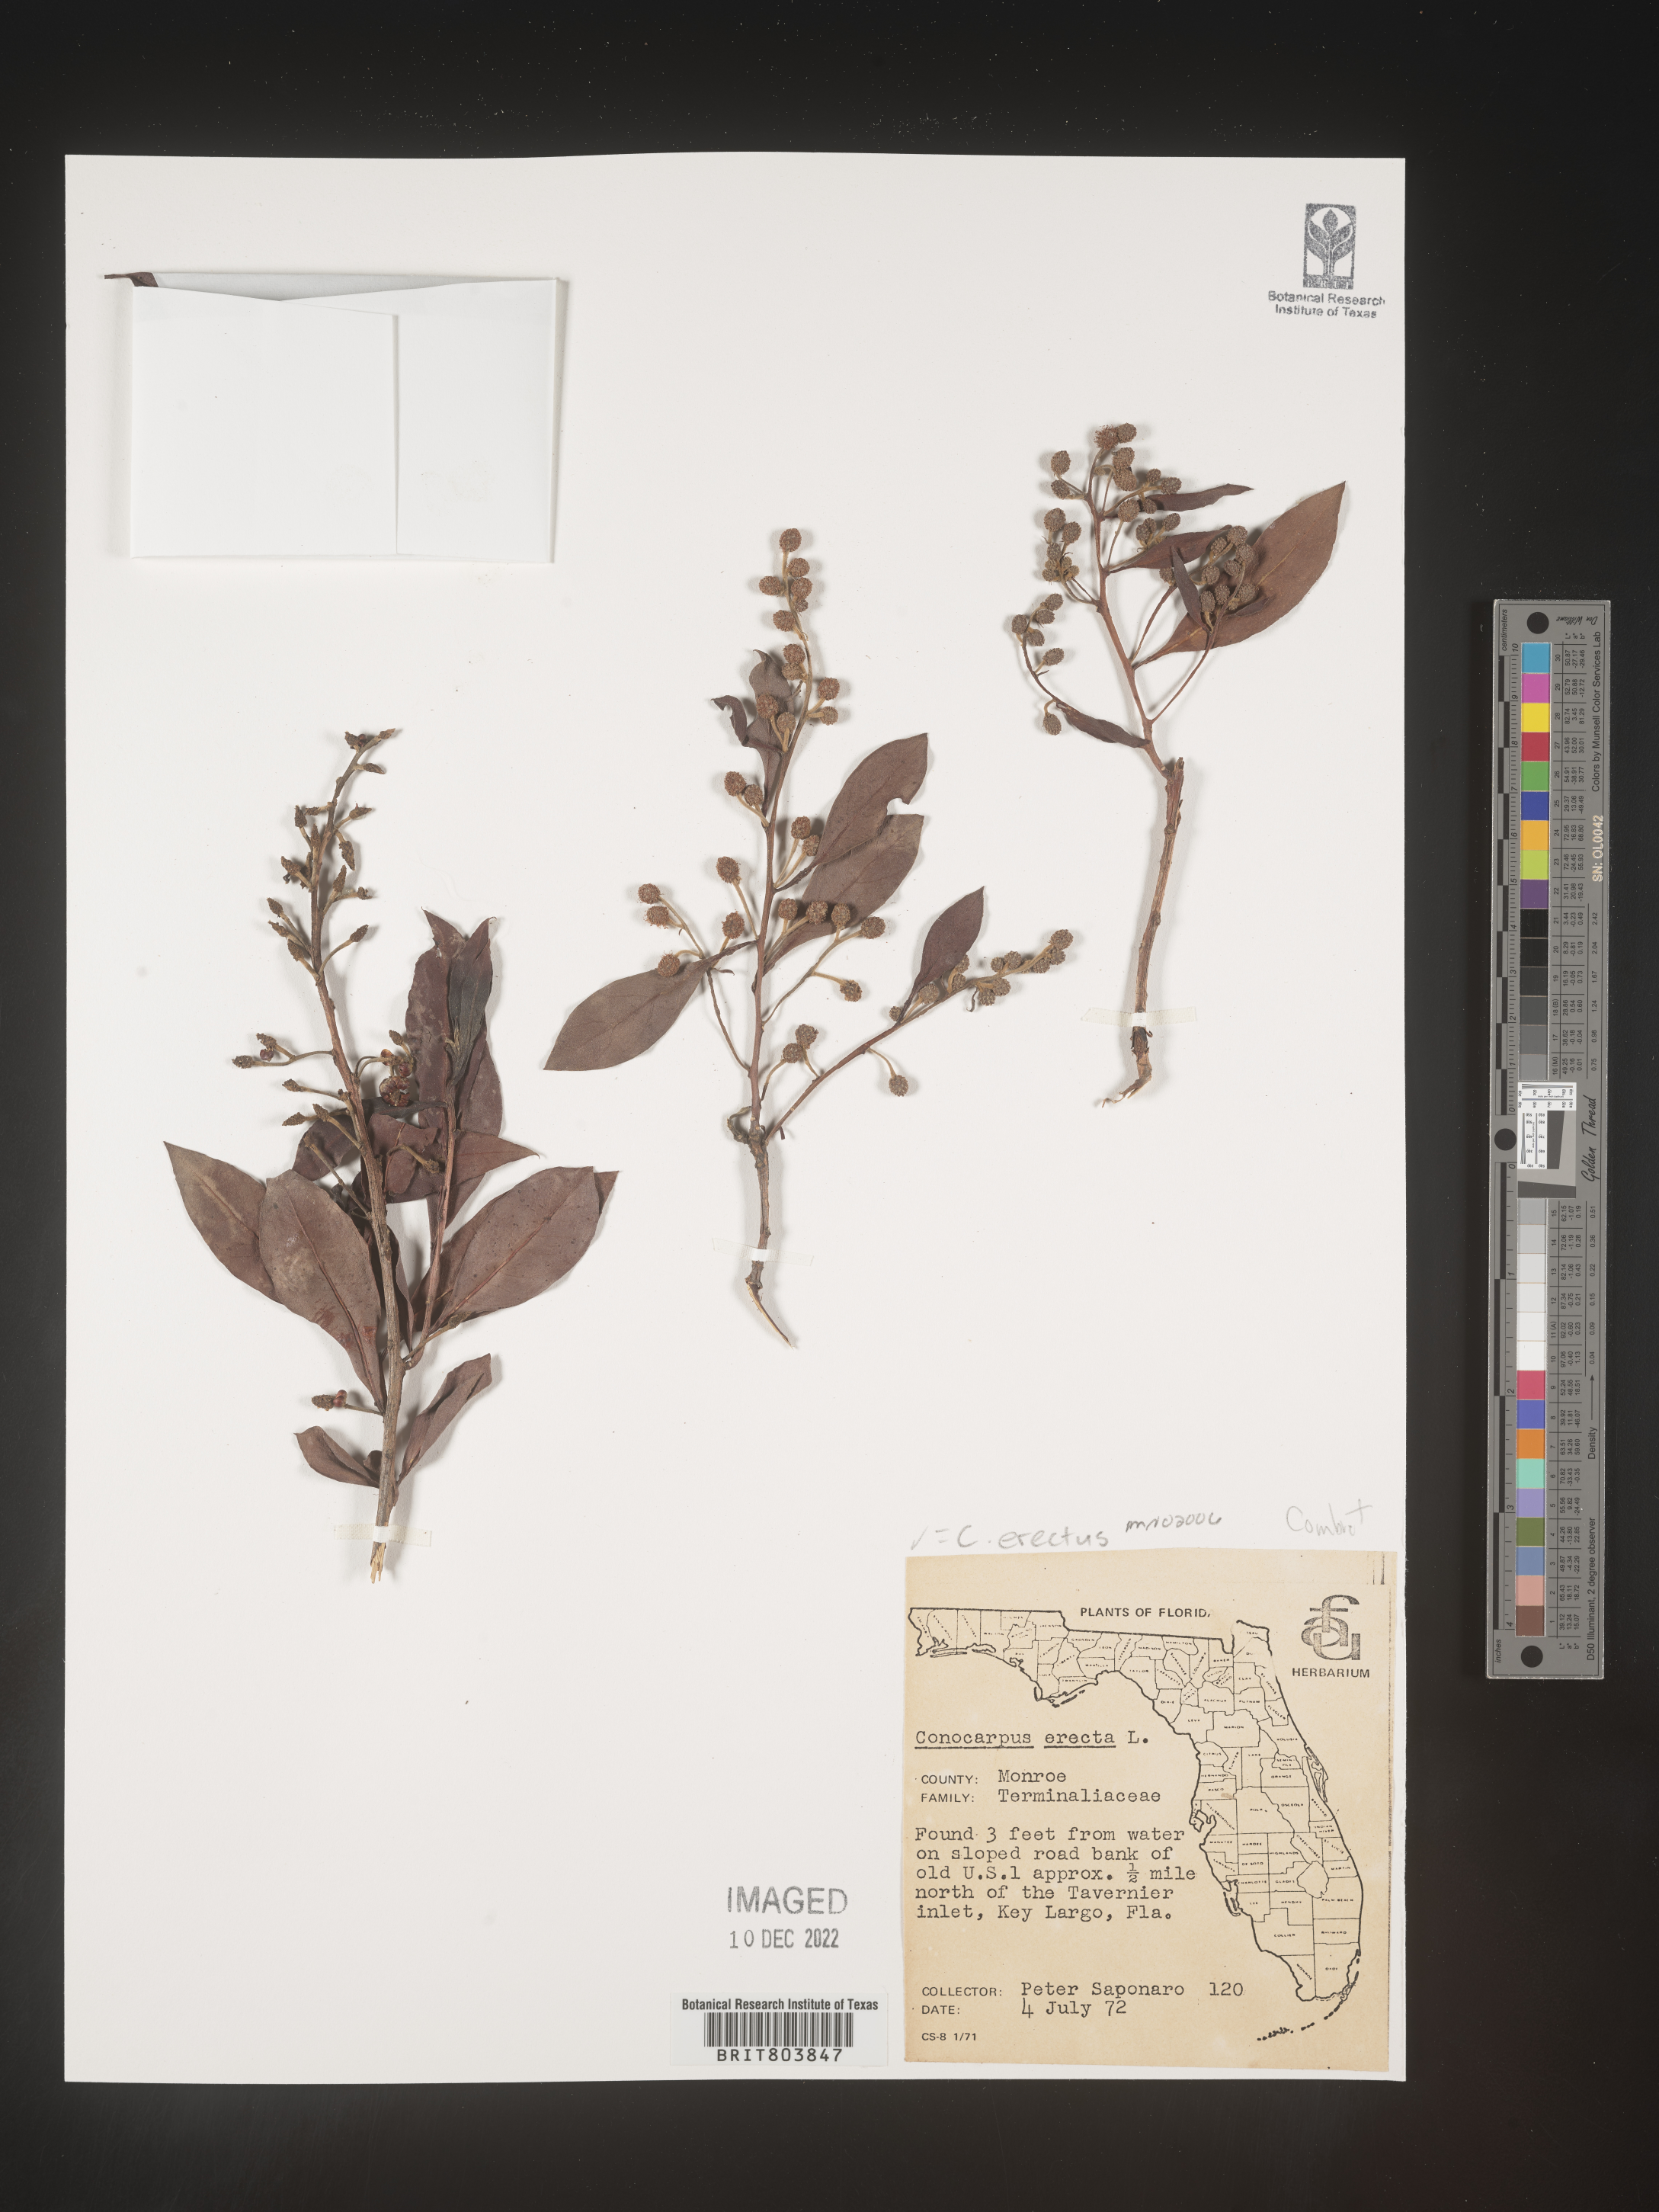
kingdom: Plantae
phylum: Tracheophyta
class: Magnoliopsida
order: Myrtales
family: Combretaceae
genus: Conocarpus
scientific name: Conocarpus erectus
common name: Button mangrove
